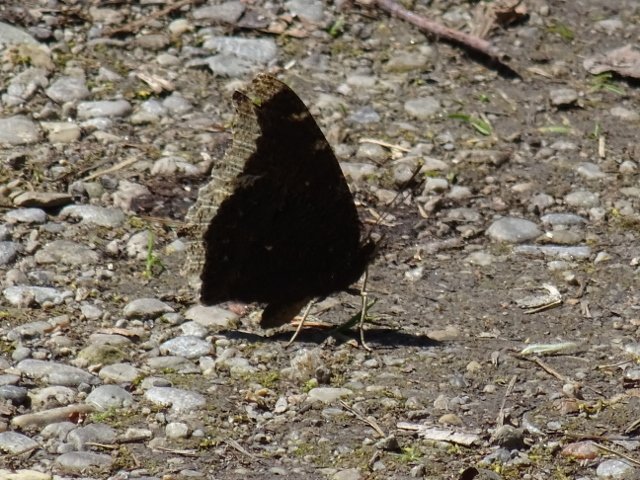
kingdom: Animalia
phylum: Arthropoda
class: Insecta
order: Lepidoptera
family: Nymphalidae
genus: Nymphalis
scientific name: Nymphalis antiopa
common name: Mourning Cloak
